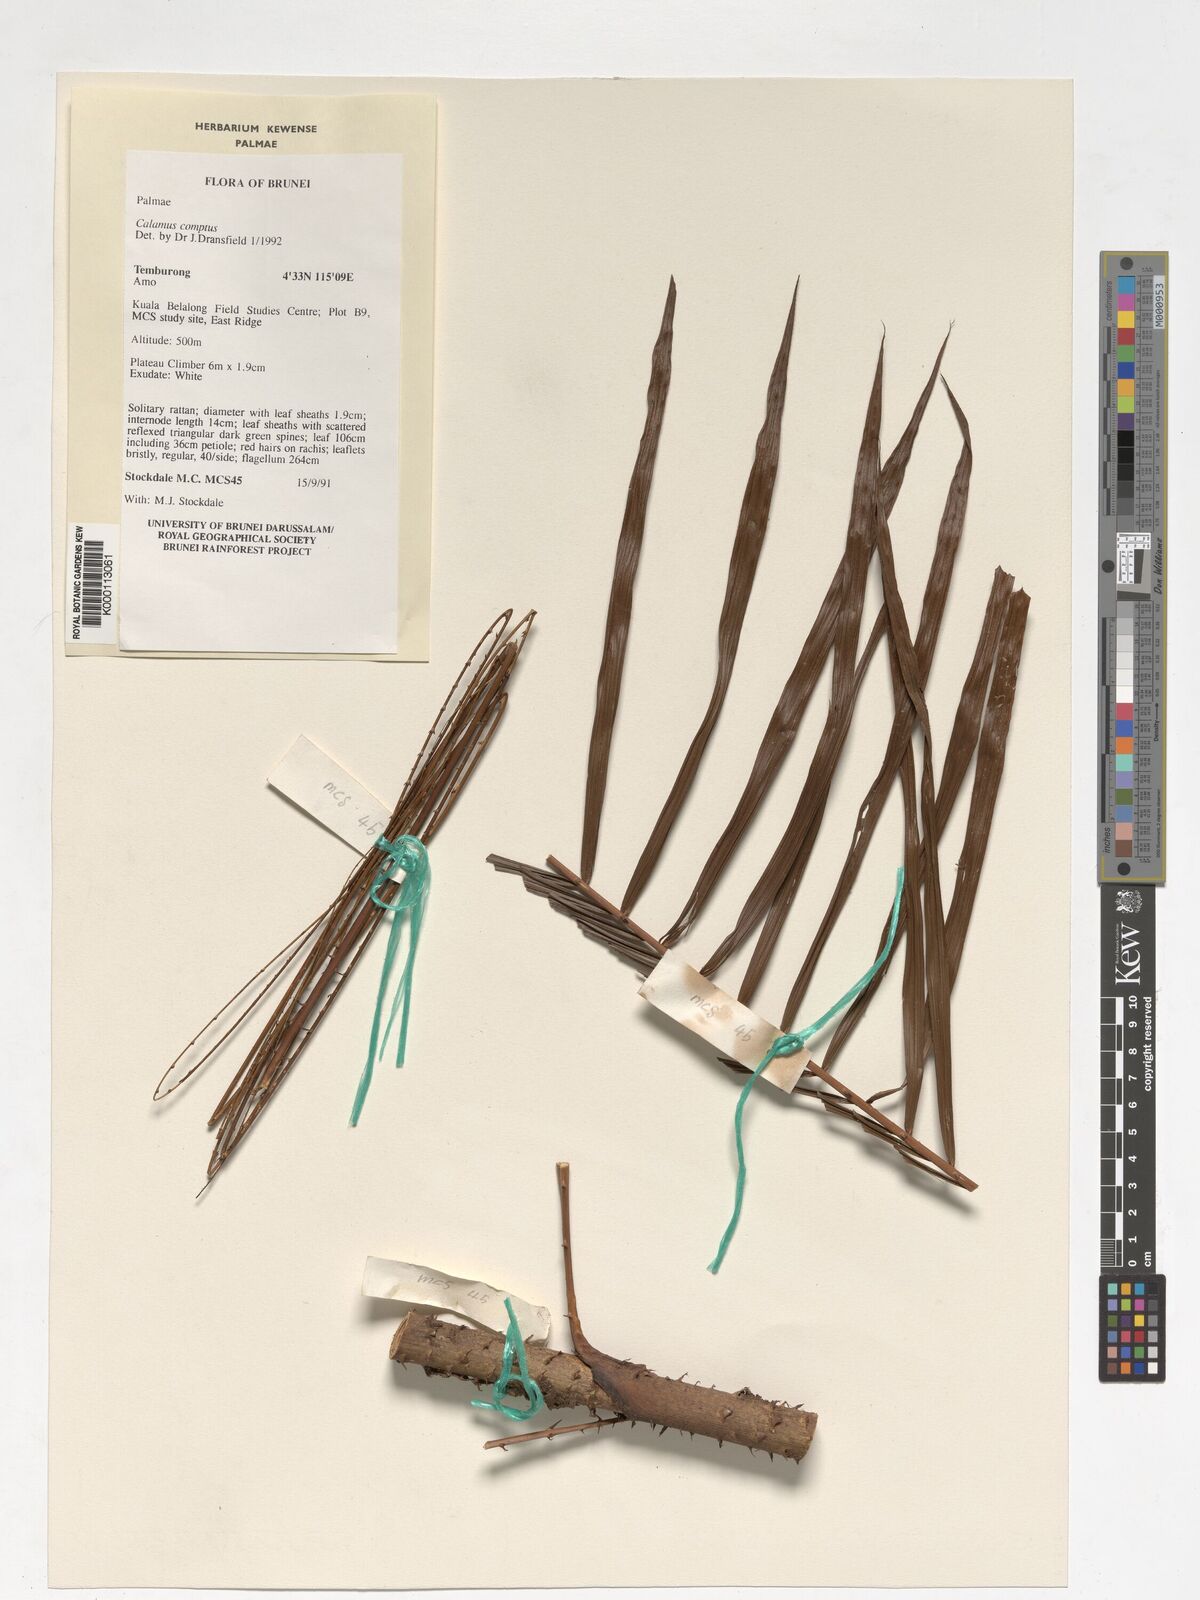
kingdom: Plantae
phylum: Tracheophyta
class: Liliopsida
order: Arecales
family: Arecaceae
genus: Calamus
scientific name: Calamus comptus
